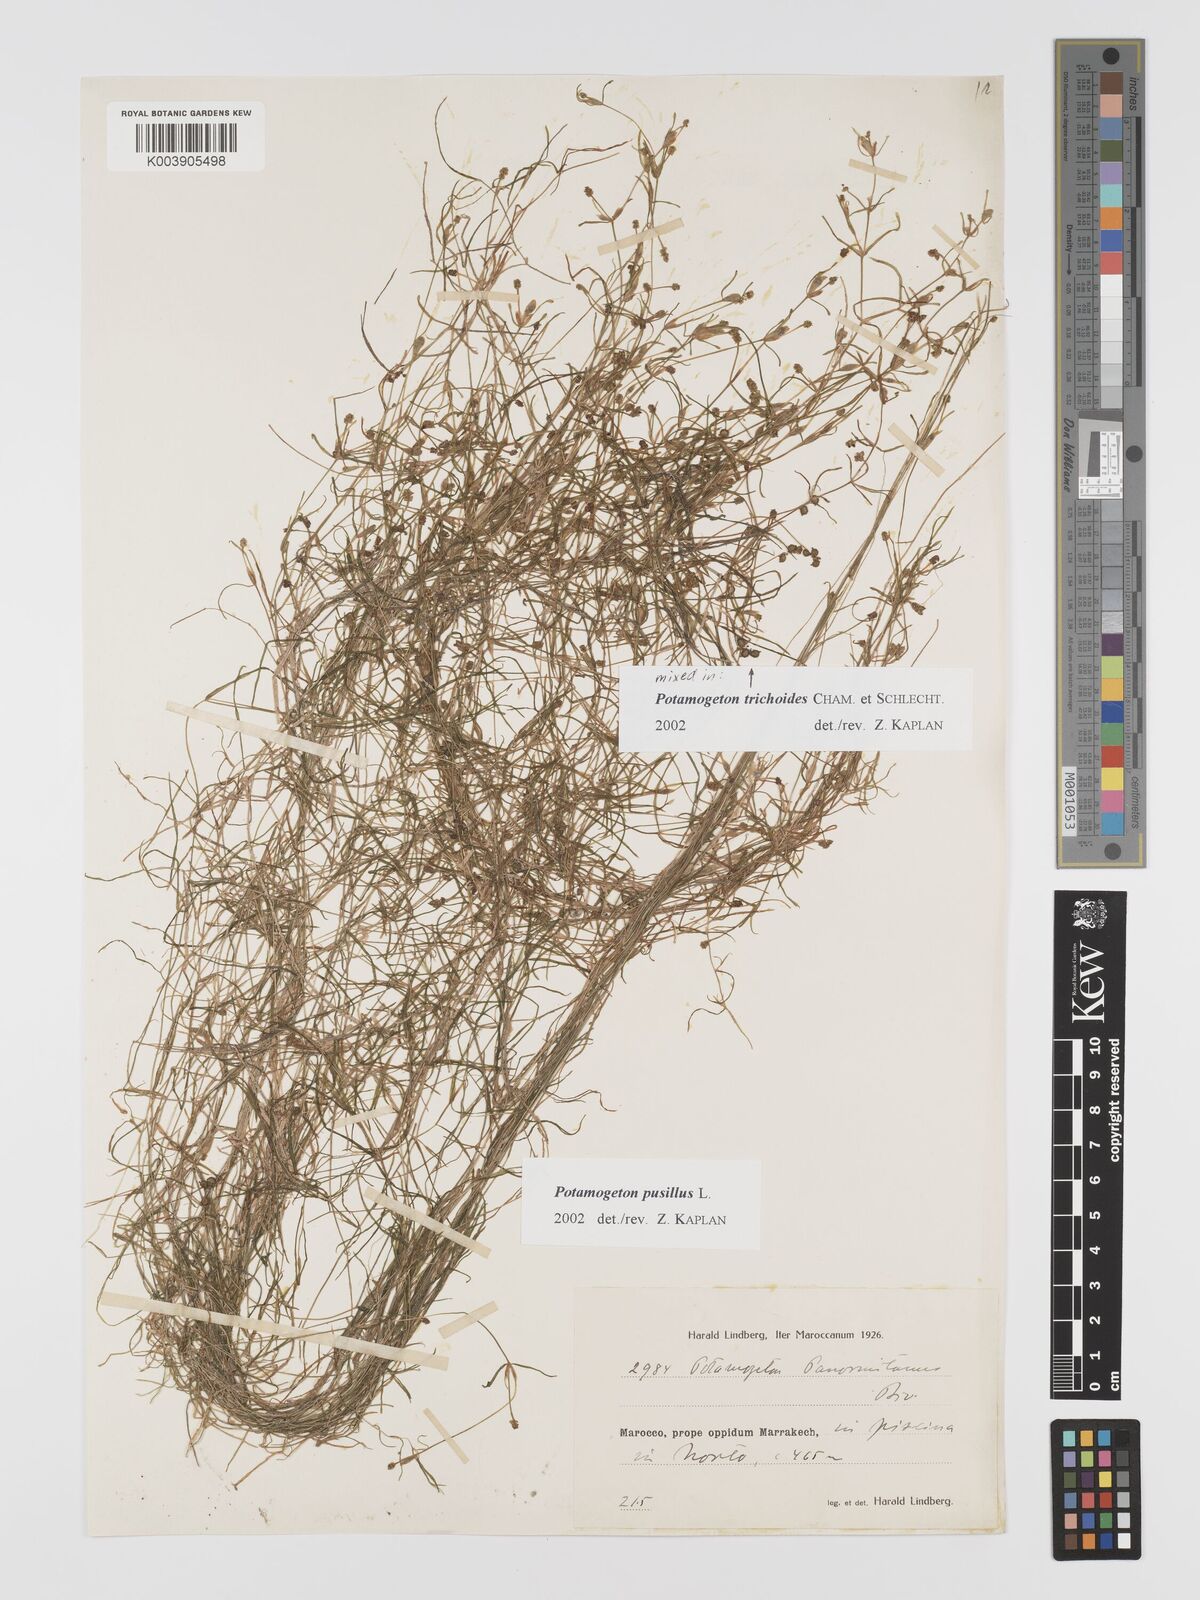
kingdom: Plantae
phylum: Tracheophyta
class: Liliopsida
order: Alismatales
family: Potamogetonaceae
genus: Potamogeton
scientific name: Potamogeton pusillus
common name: Lesser pondweed
